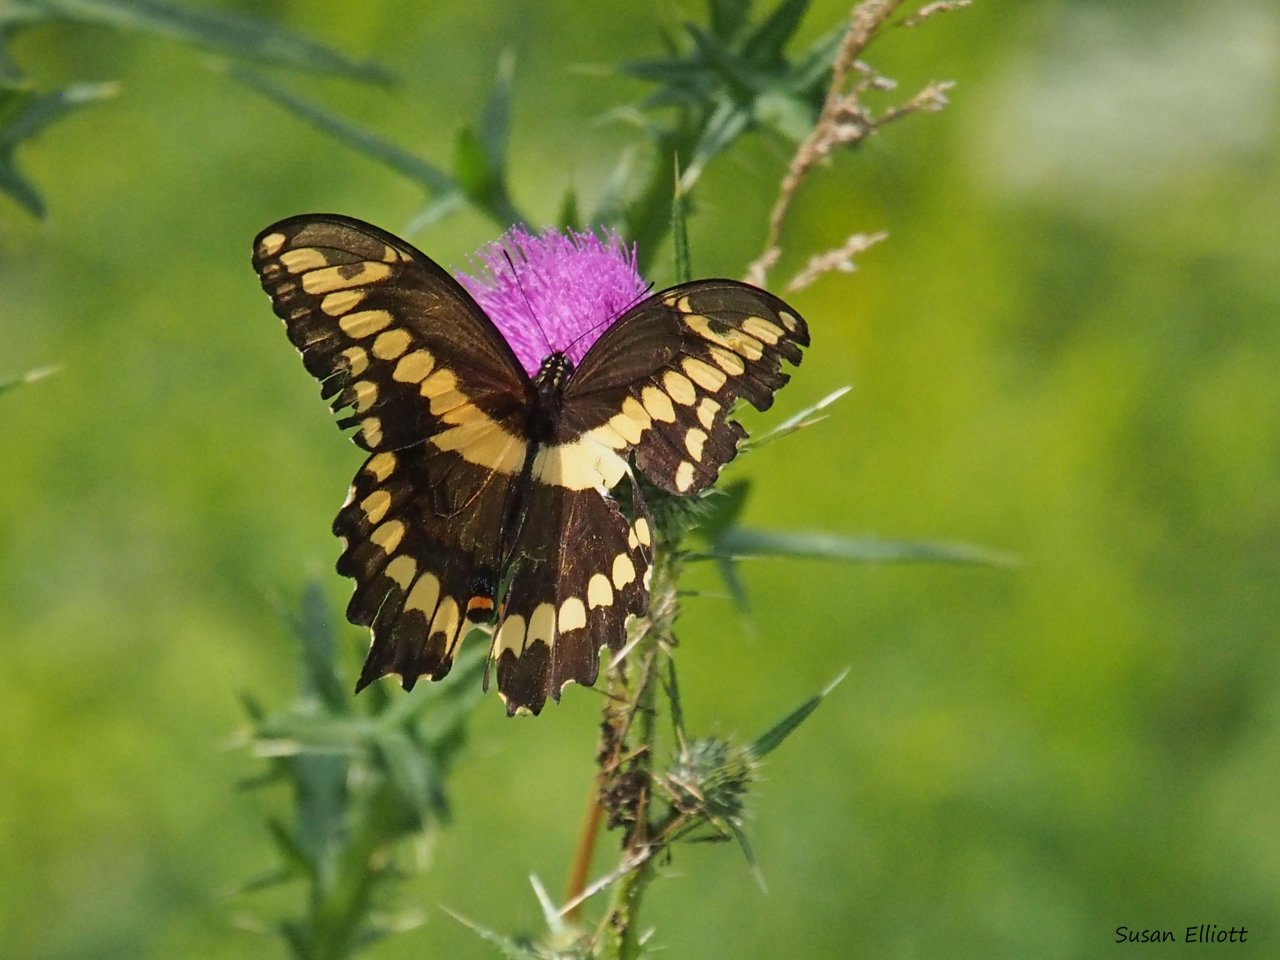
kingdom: Animalia
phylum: Arthropoda
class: Insecta
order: Lepidoptera
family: Papilionidae
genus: Papilio
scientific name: Papilio cresphontes
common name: Eastern Giant Swallowtail
